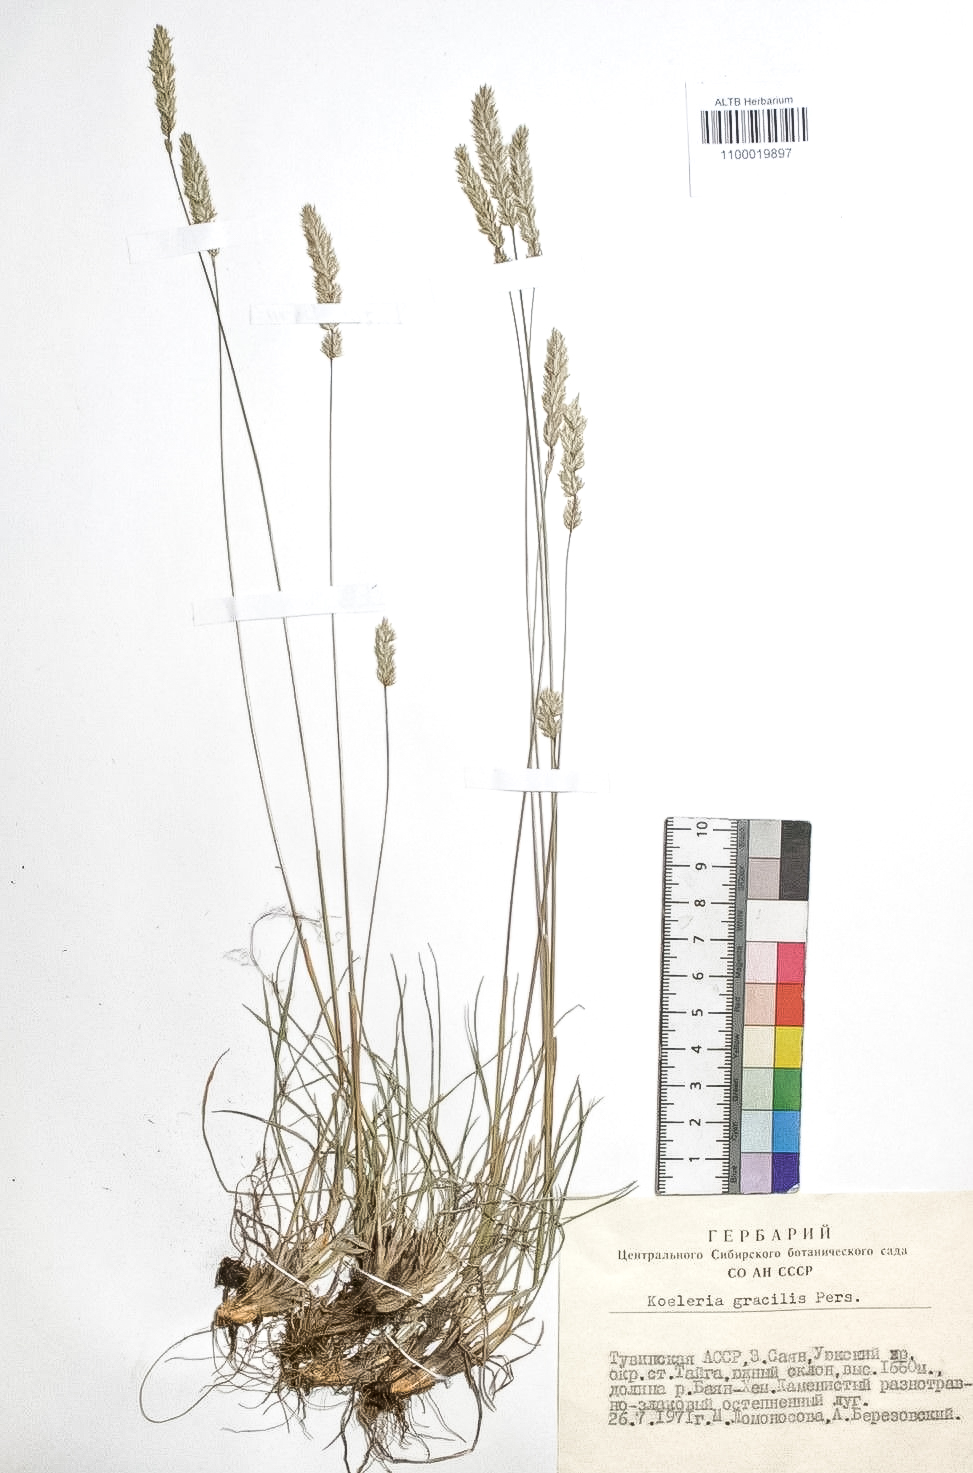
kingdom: Plantae
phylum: Tracheophyta
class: Liliopsida
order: Poales
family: Poaceae
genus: Koeleria
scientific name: Koeleria macrantha
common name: Crested hair-grass
